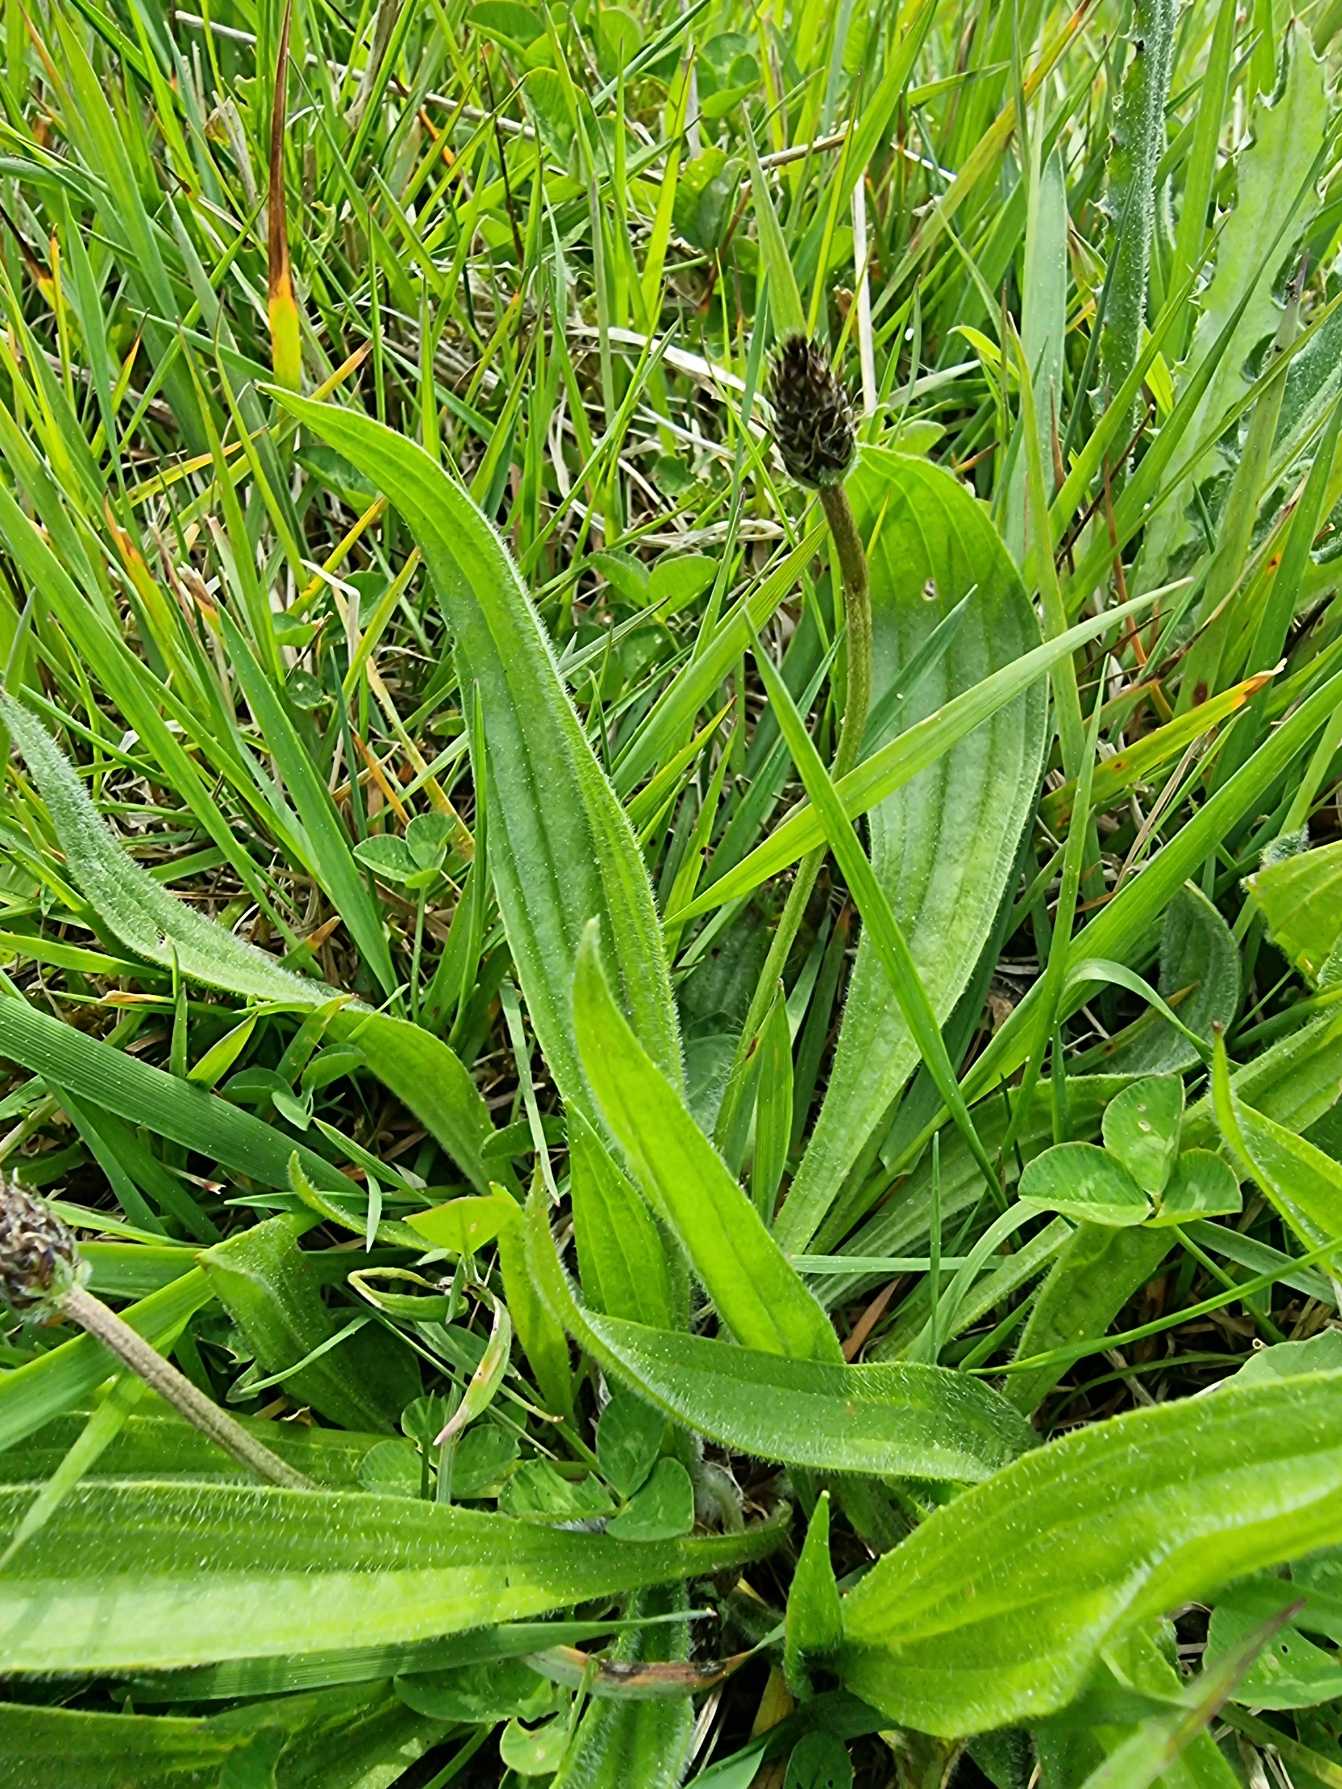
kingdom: Plantae
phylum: Tracheophyta
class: Magnoliopsida
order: Lamiales
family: Plantaginaceae
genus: Plantago
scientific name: Plantago lanceolata
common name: Lancet-vejbred
